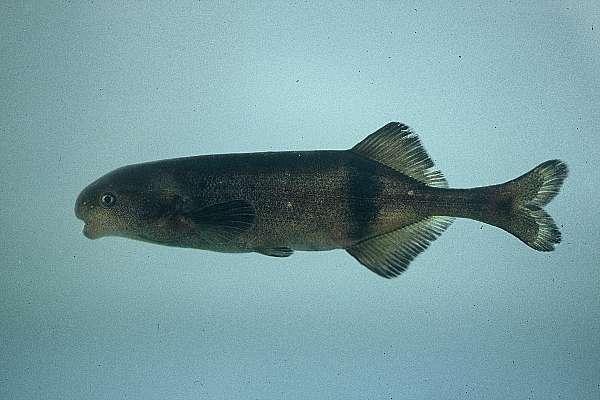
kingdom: Animalia
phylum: Chordata
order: Osteoglossiformes
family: Mormyridae
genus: Hippopotamyrus
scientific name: Hippopotamyrus ansorgii
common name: Slender stonebasher
